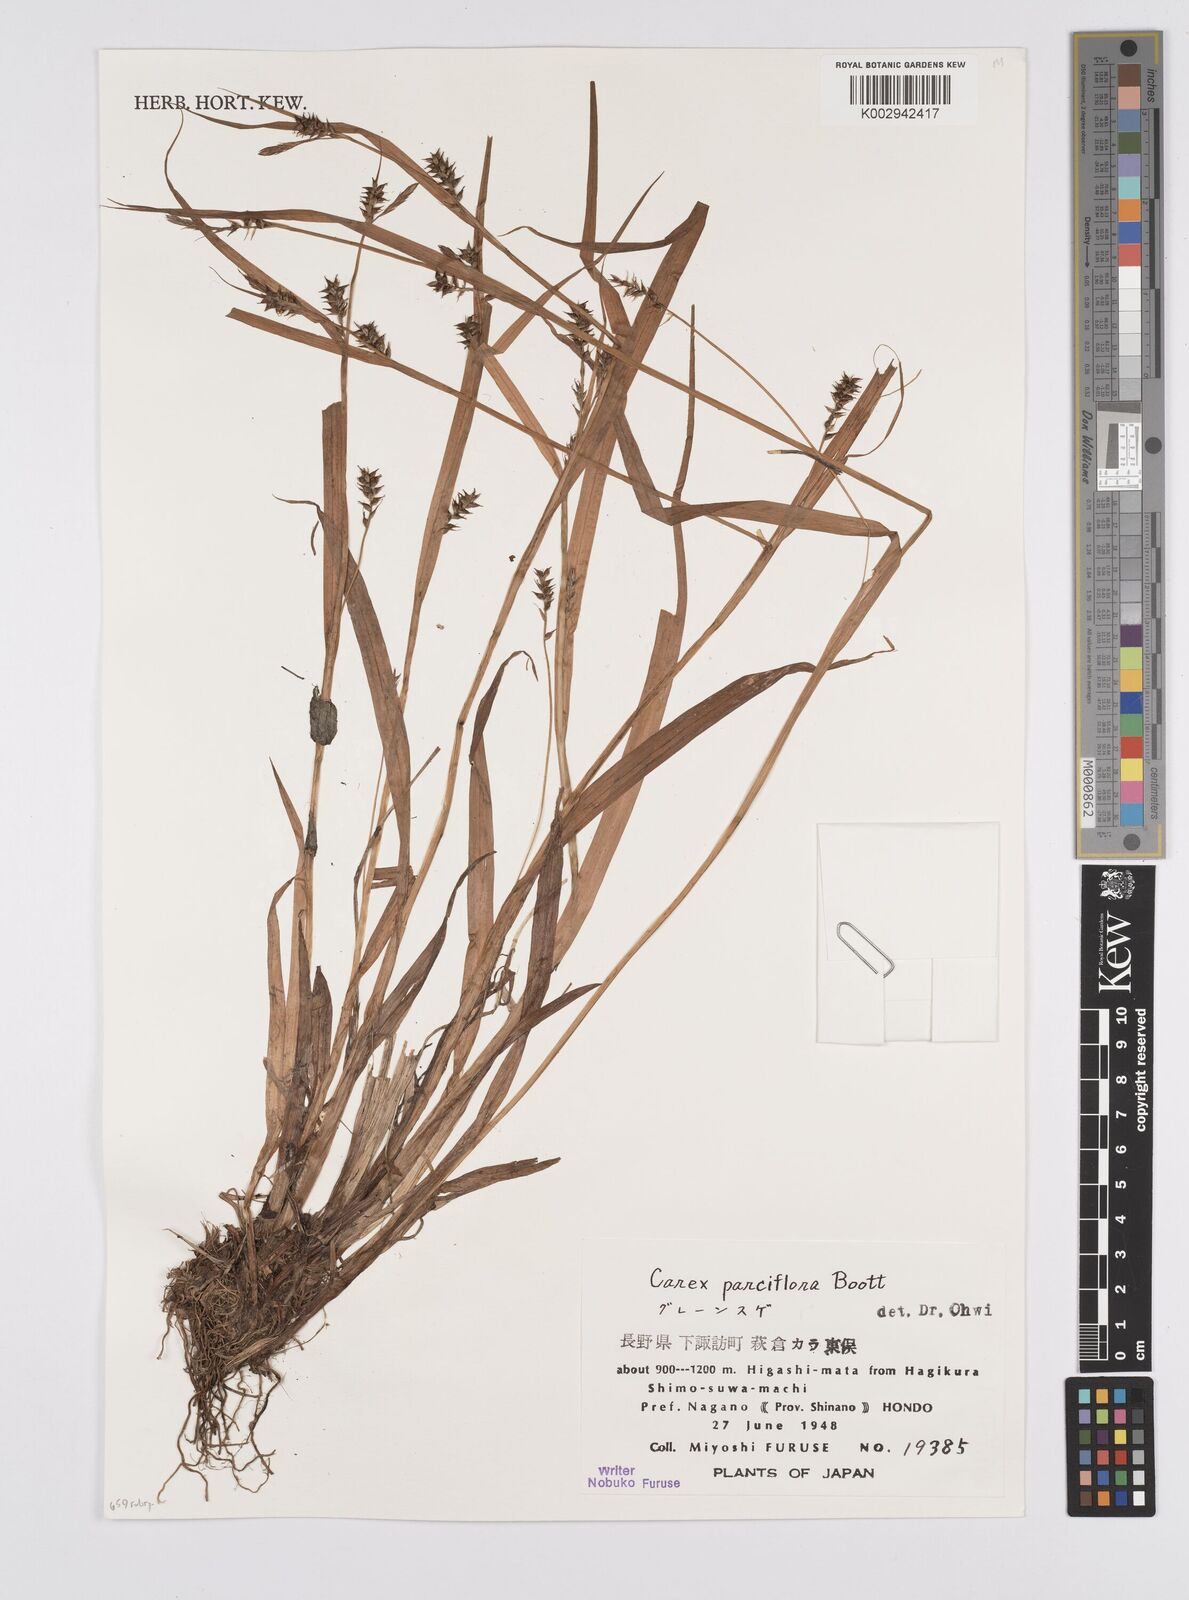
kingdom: Plantae
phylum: Tracheophyta
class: Liliopsida
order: Poales
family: Cyperaceae
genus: Carex
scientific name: Carex parciflora
